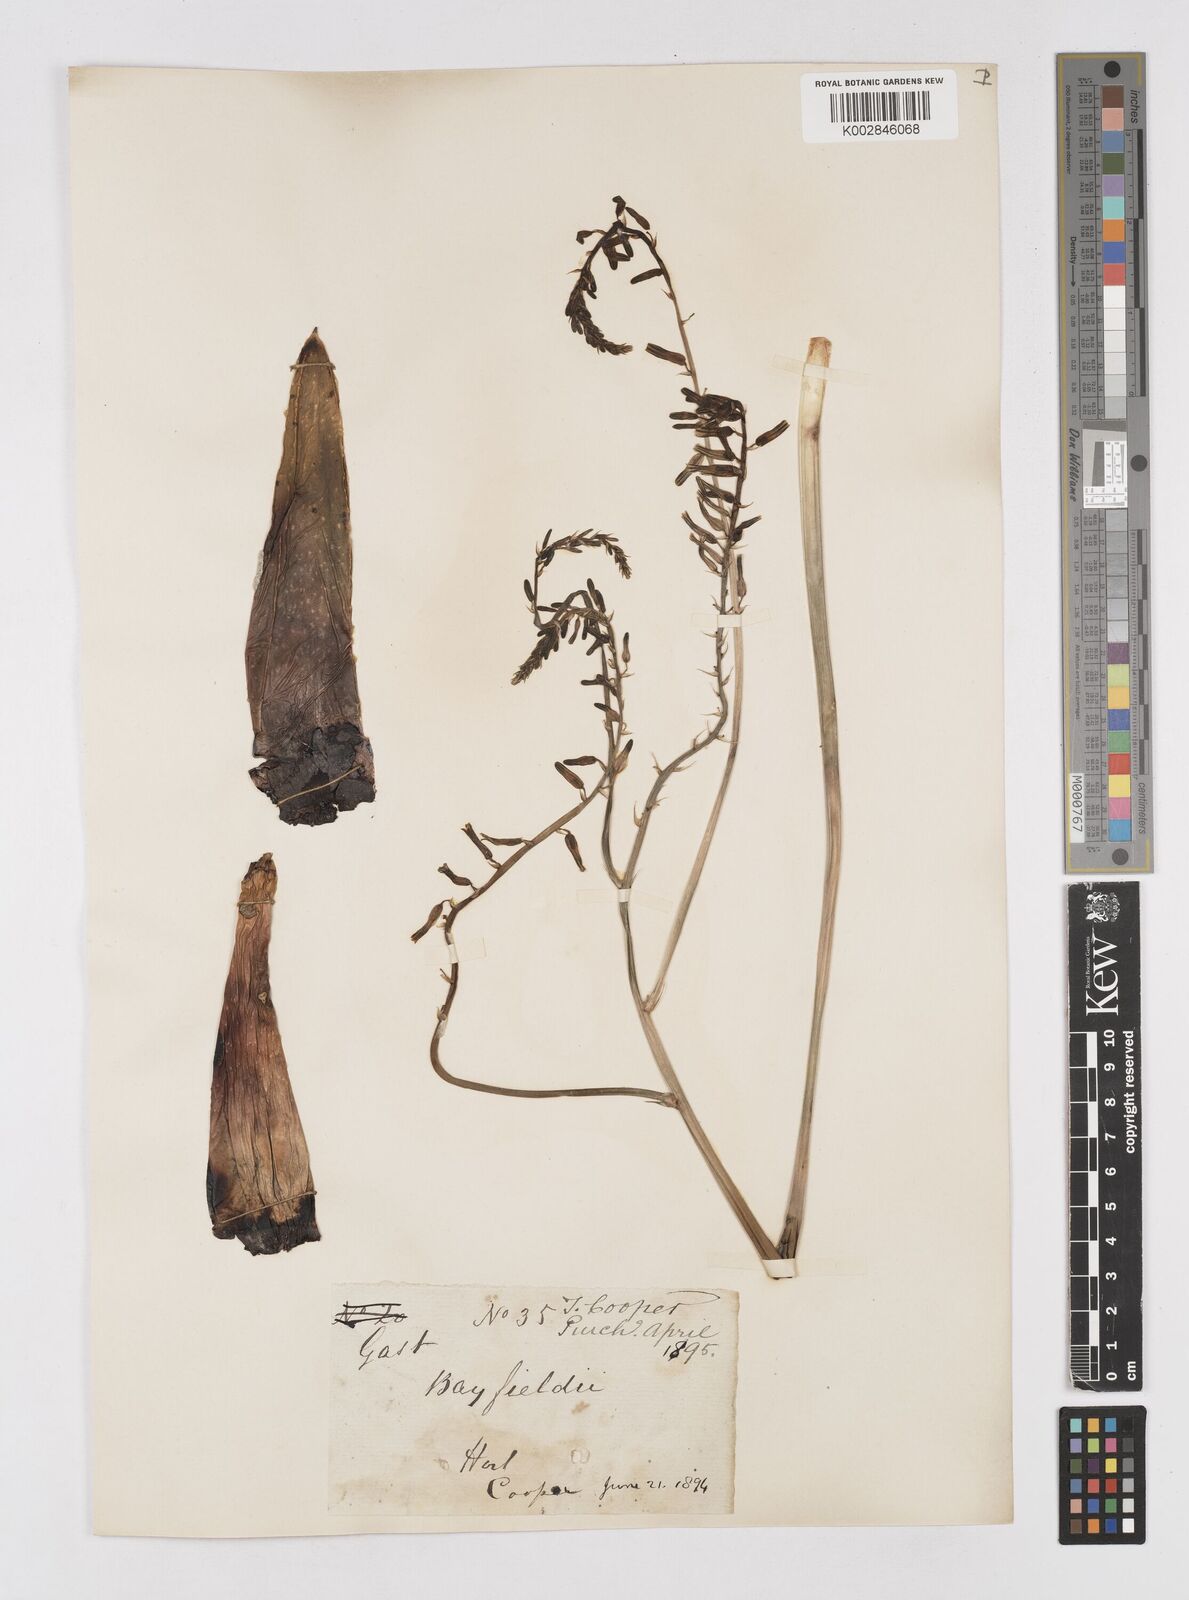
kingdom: Plantae
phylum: Tracheophyta
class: Liliopsida
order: Asparagales
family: Asphodelaceae
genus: Gasterhaworthia
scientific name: Gasterhaworthia bayfieldii
